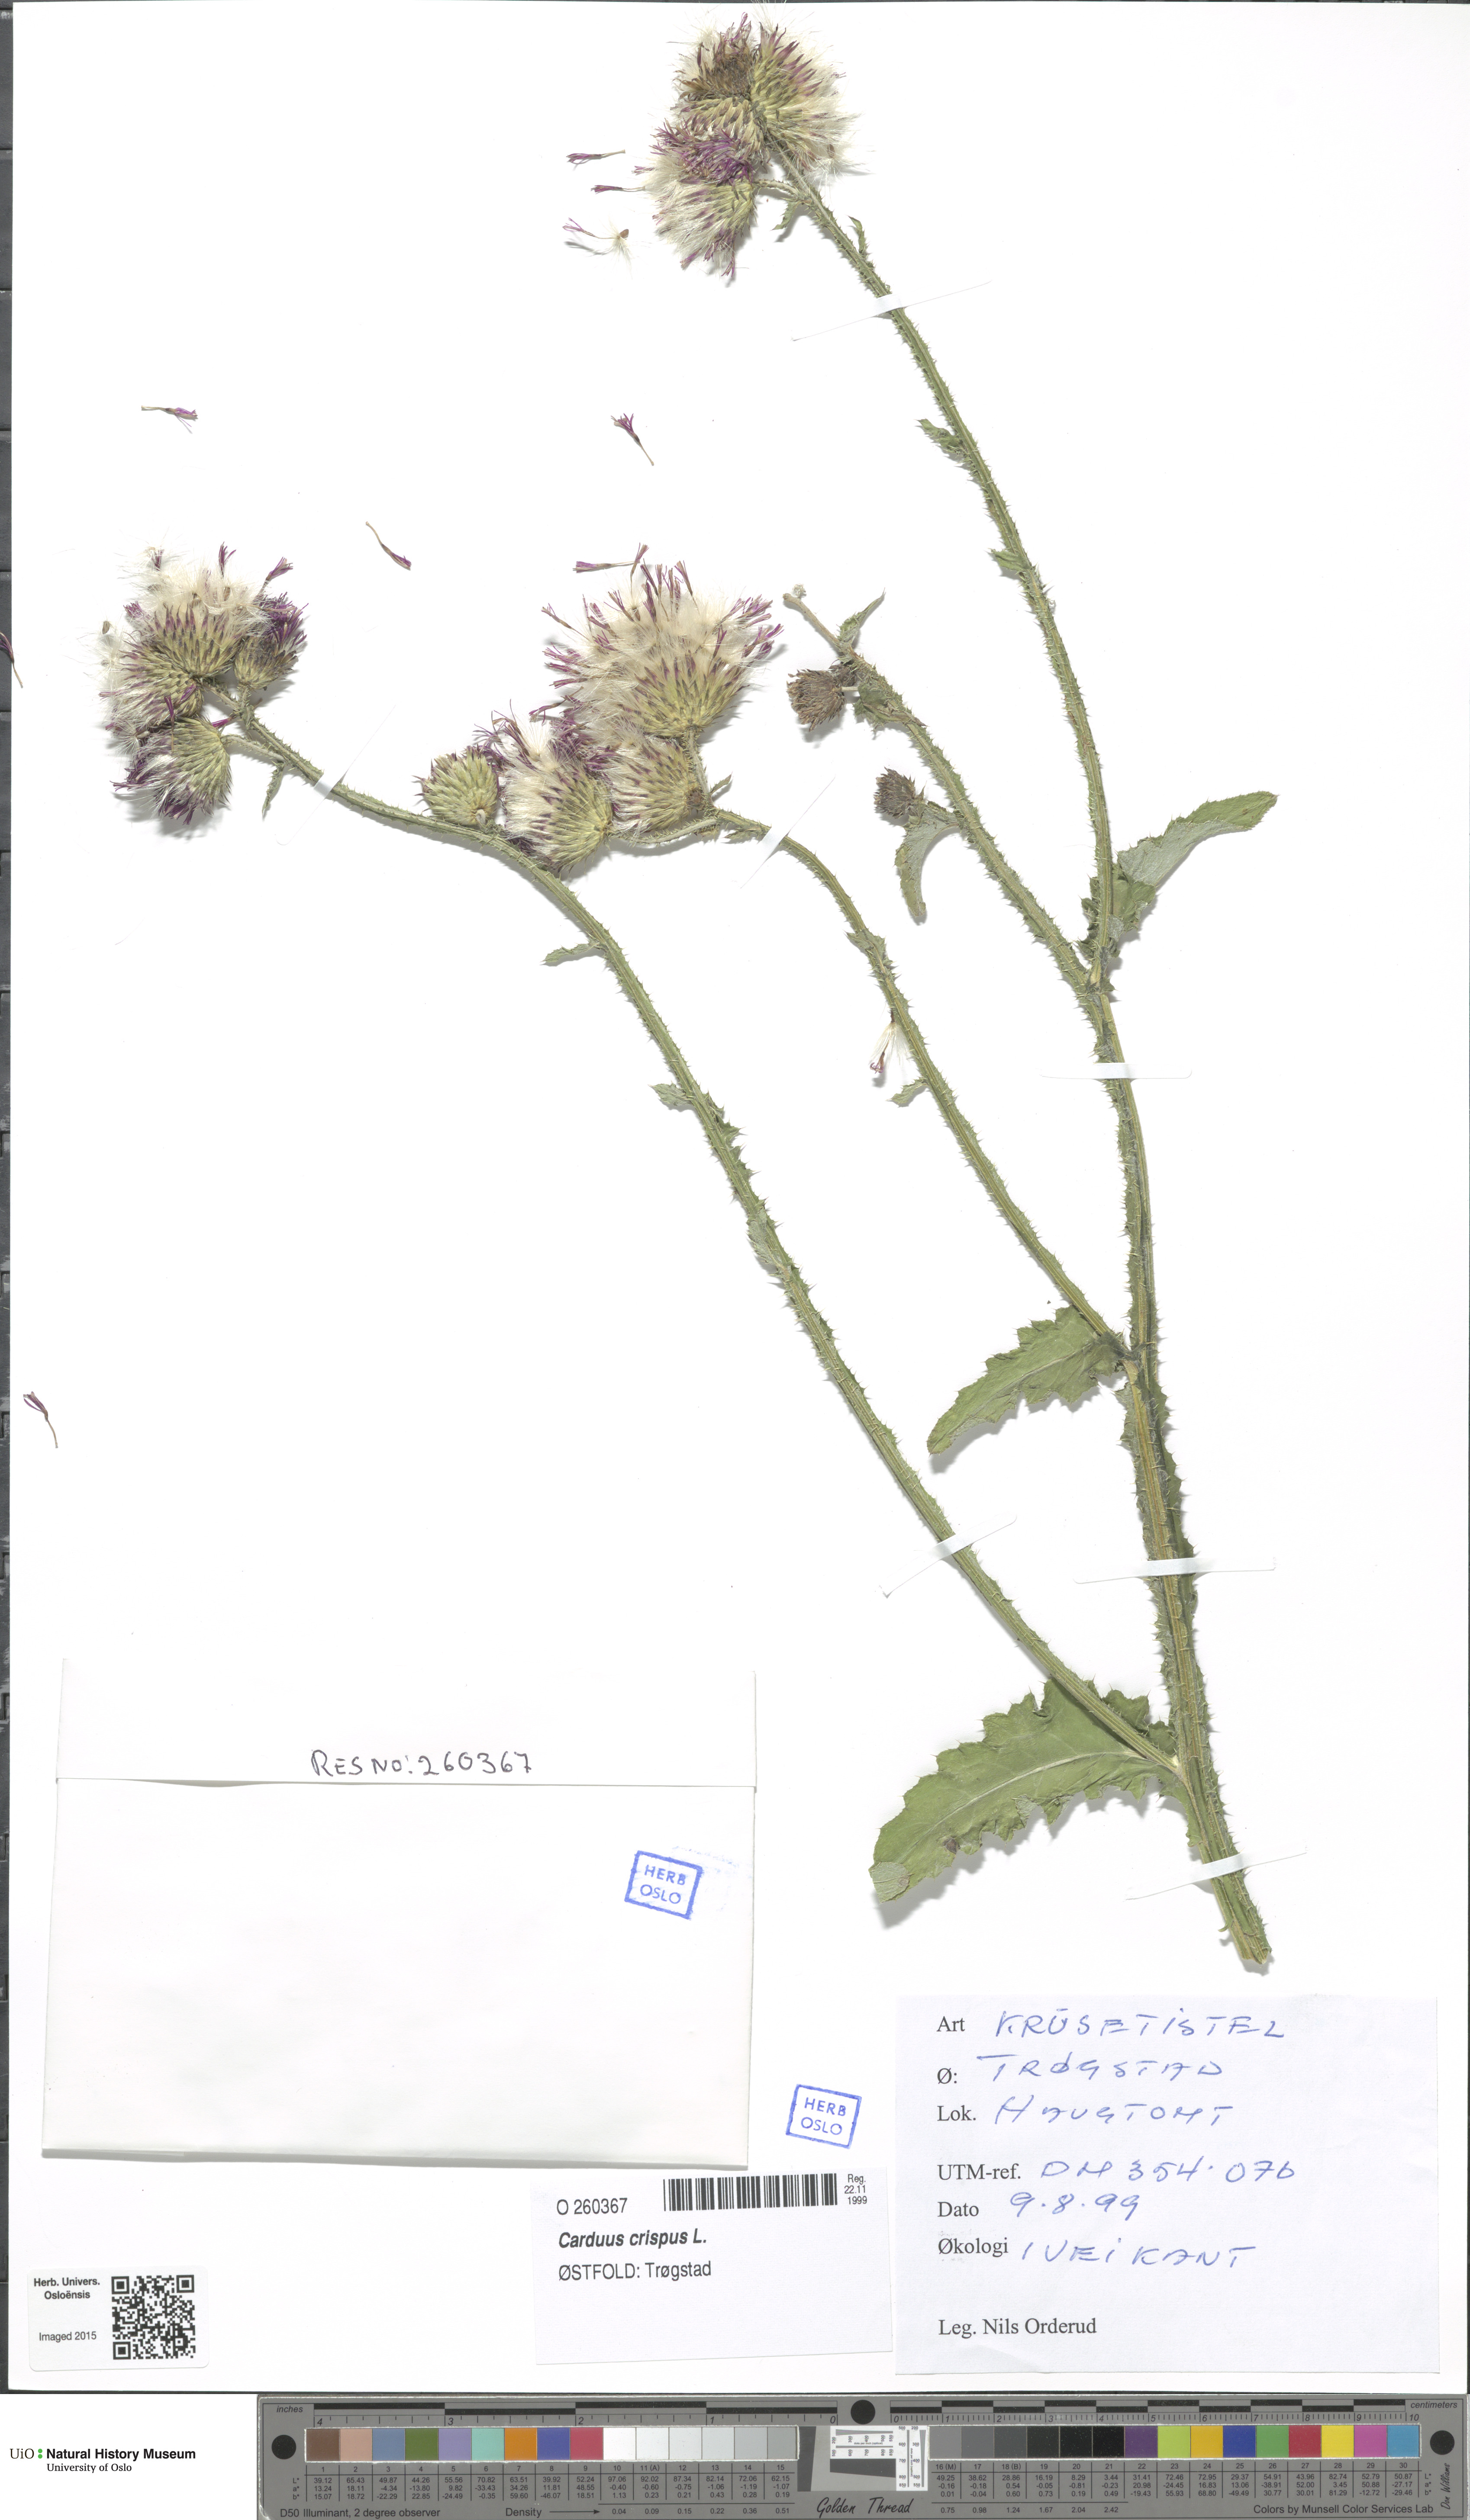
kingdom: Plantae
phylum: Tracheophyta
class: Magnoliopsida
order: Asterales
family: Asteraceae
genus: Carduus
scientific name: Carduus crispus
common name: Welted thistle
